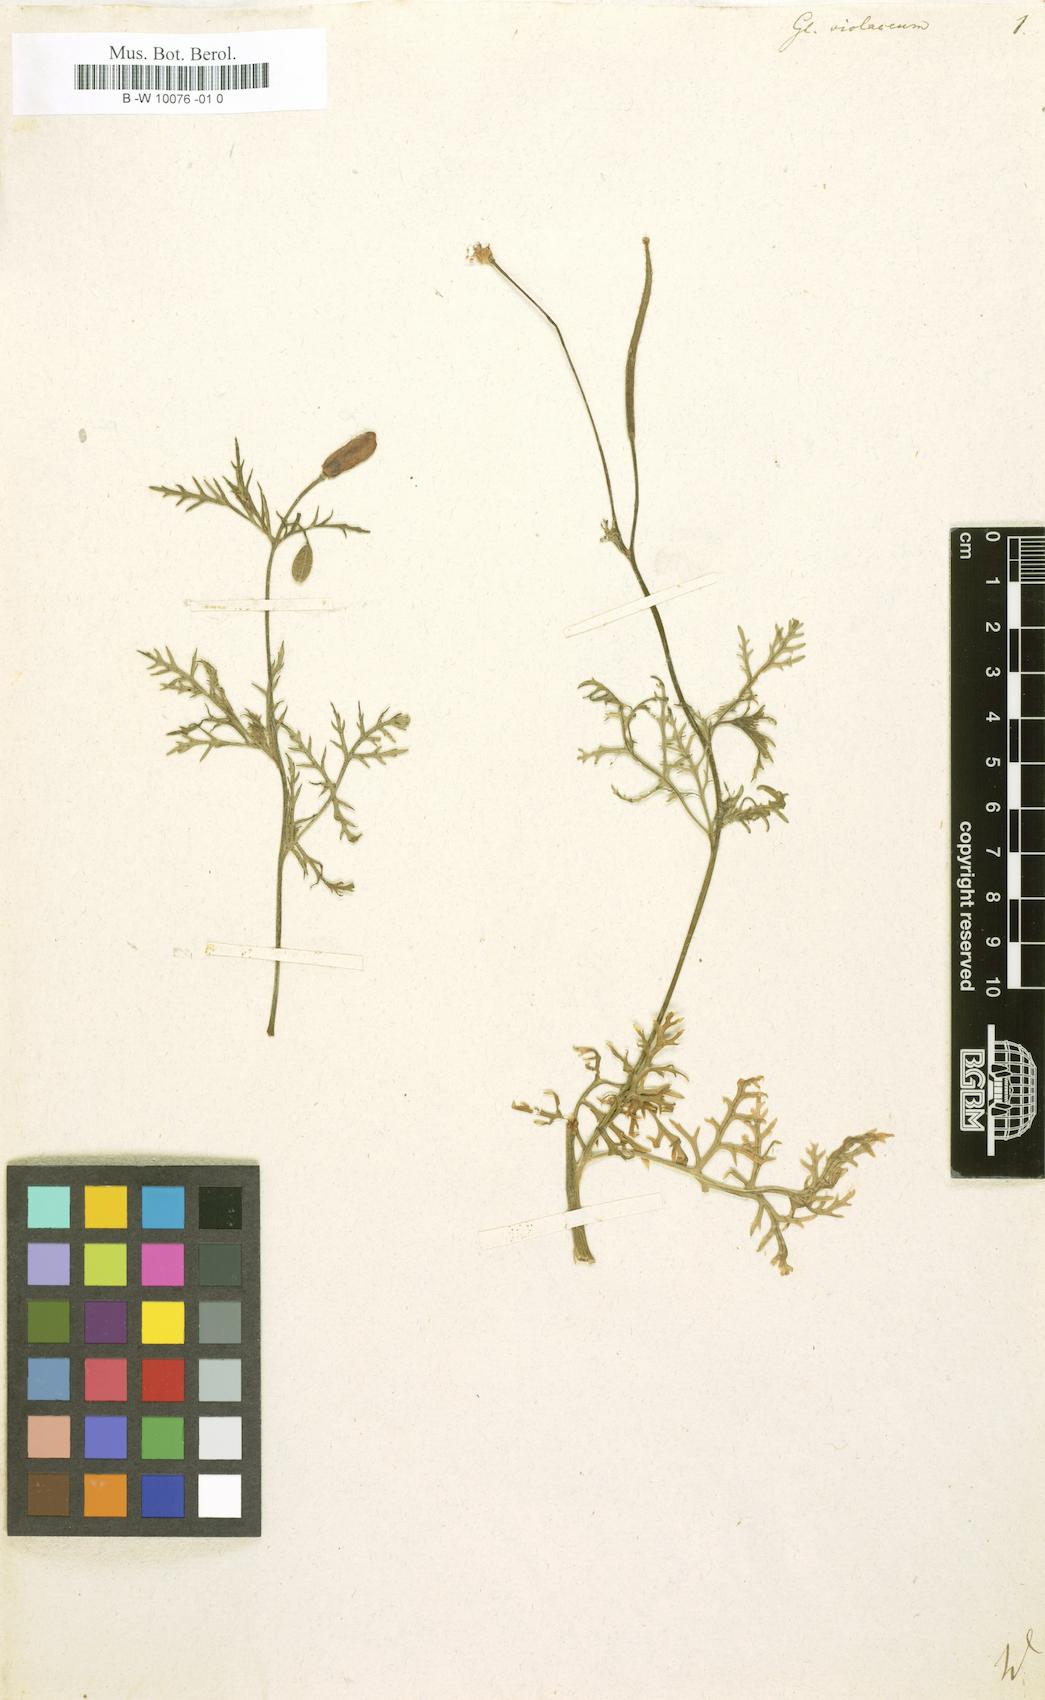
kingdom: Plantae
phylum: Tracheophyta
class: Magnoliopsida
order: Ranunculales
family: Papaveraceae
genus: Roemeria
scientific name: Roemeria hybrida
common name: Violet horned-poppy
